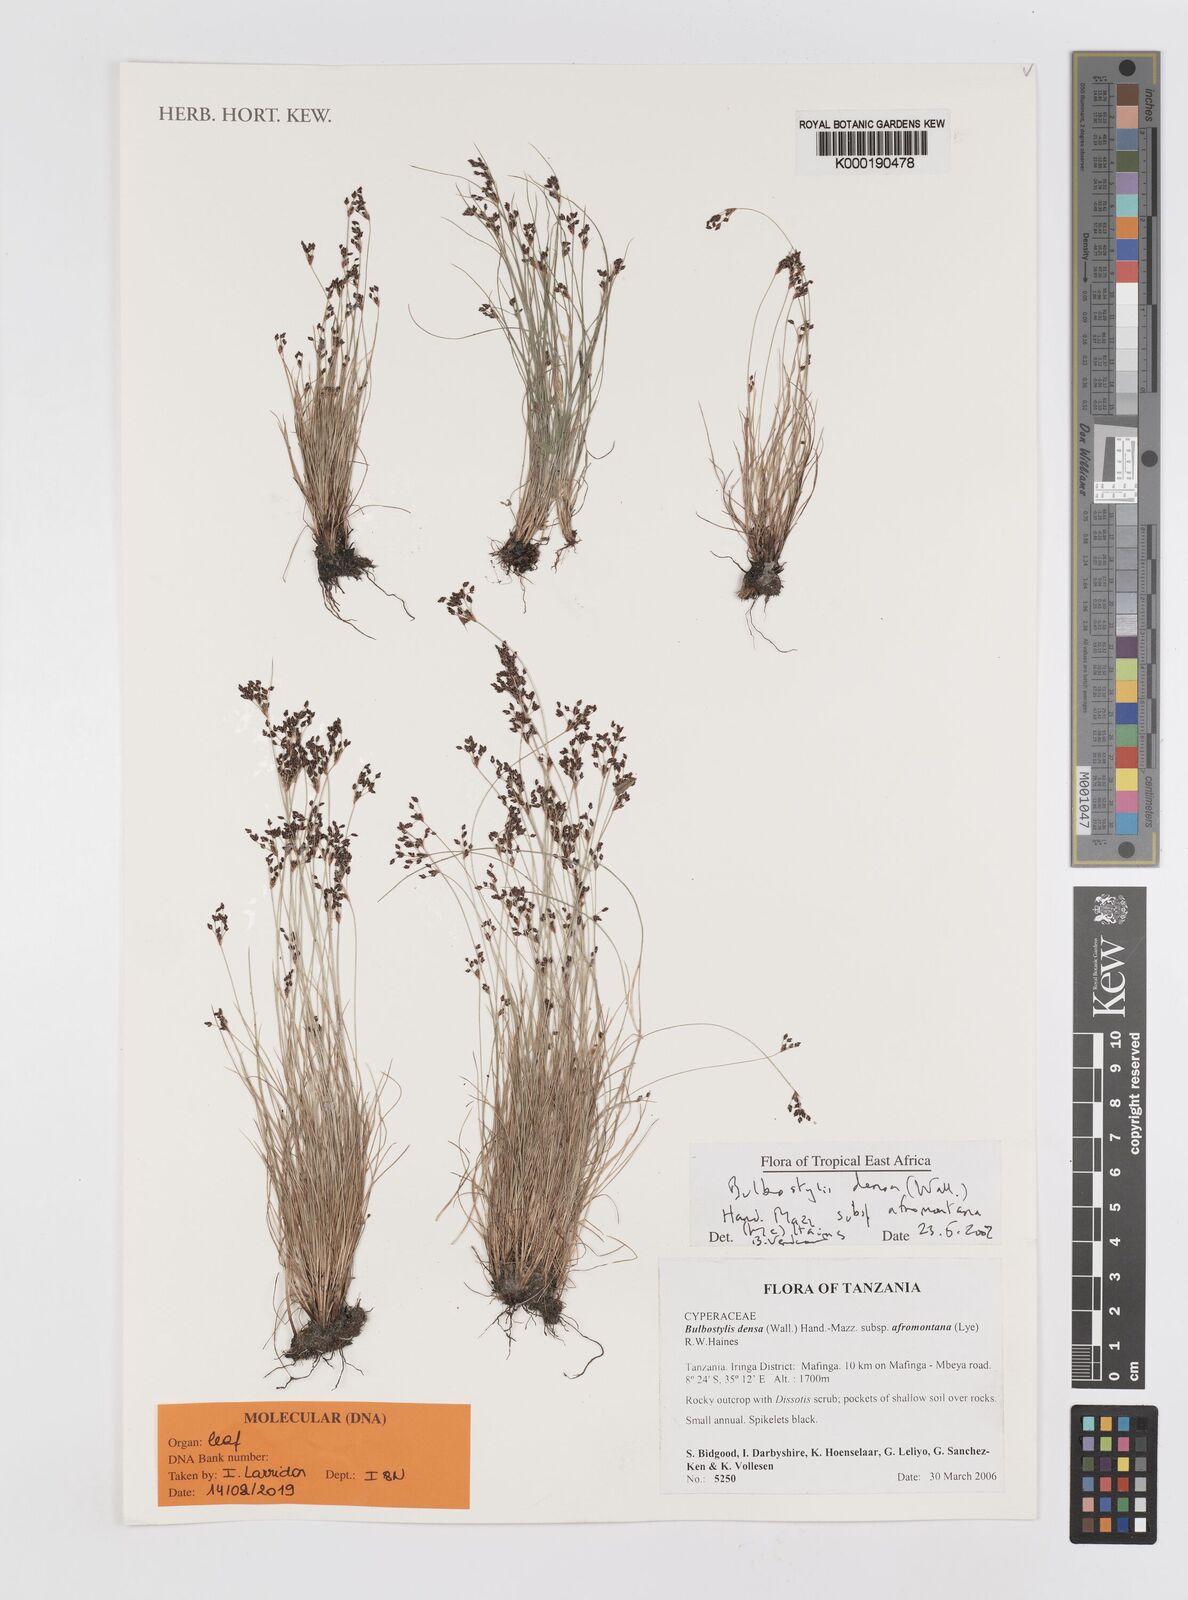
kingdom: Plantae
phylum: Tracheophyta
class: Liliopsida
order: Poales
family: Cyperaceae
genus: Bulbostylis
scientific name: Bulbostylis densa
